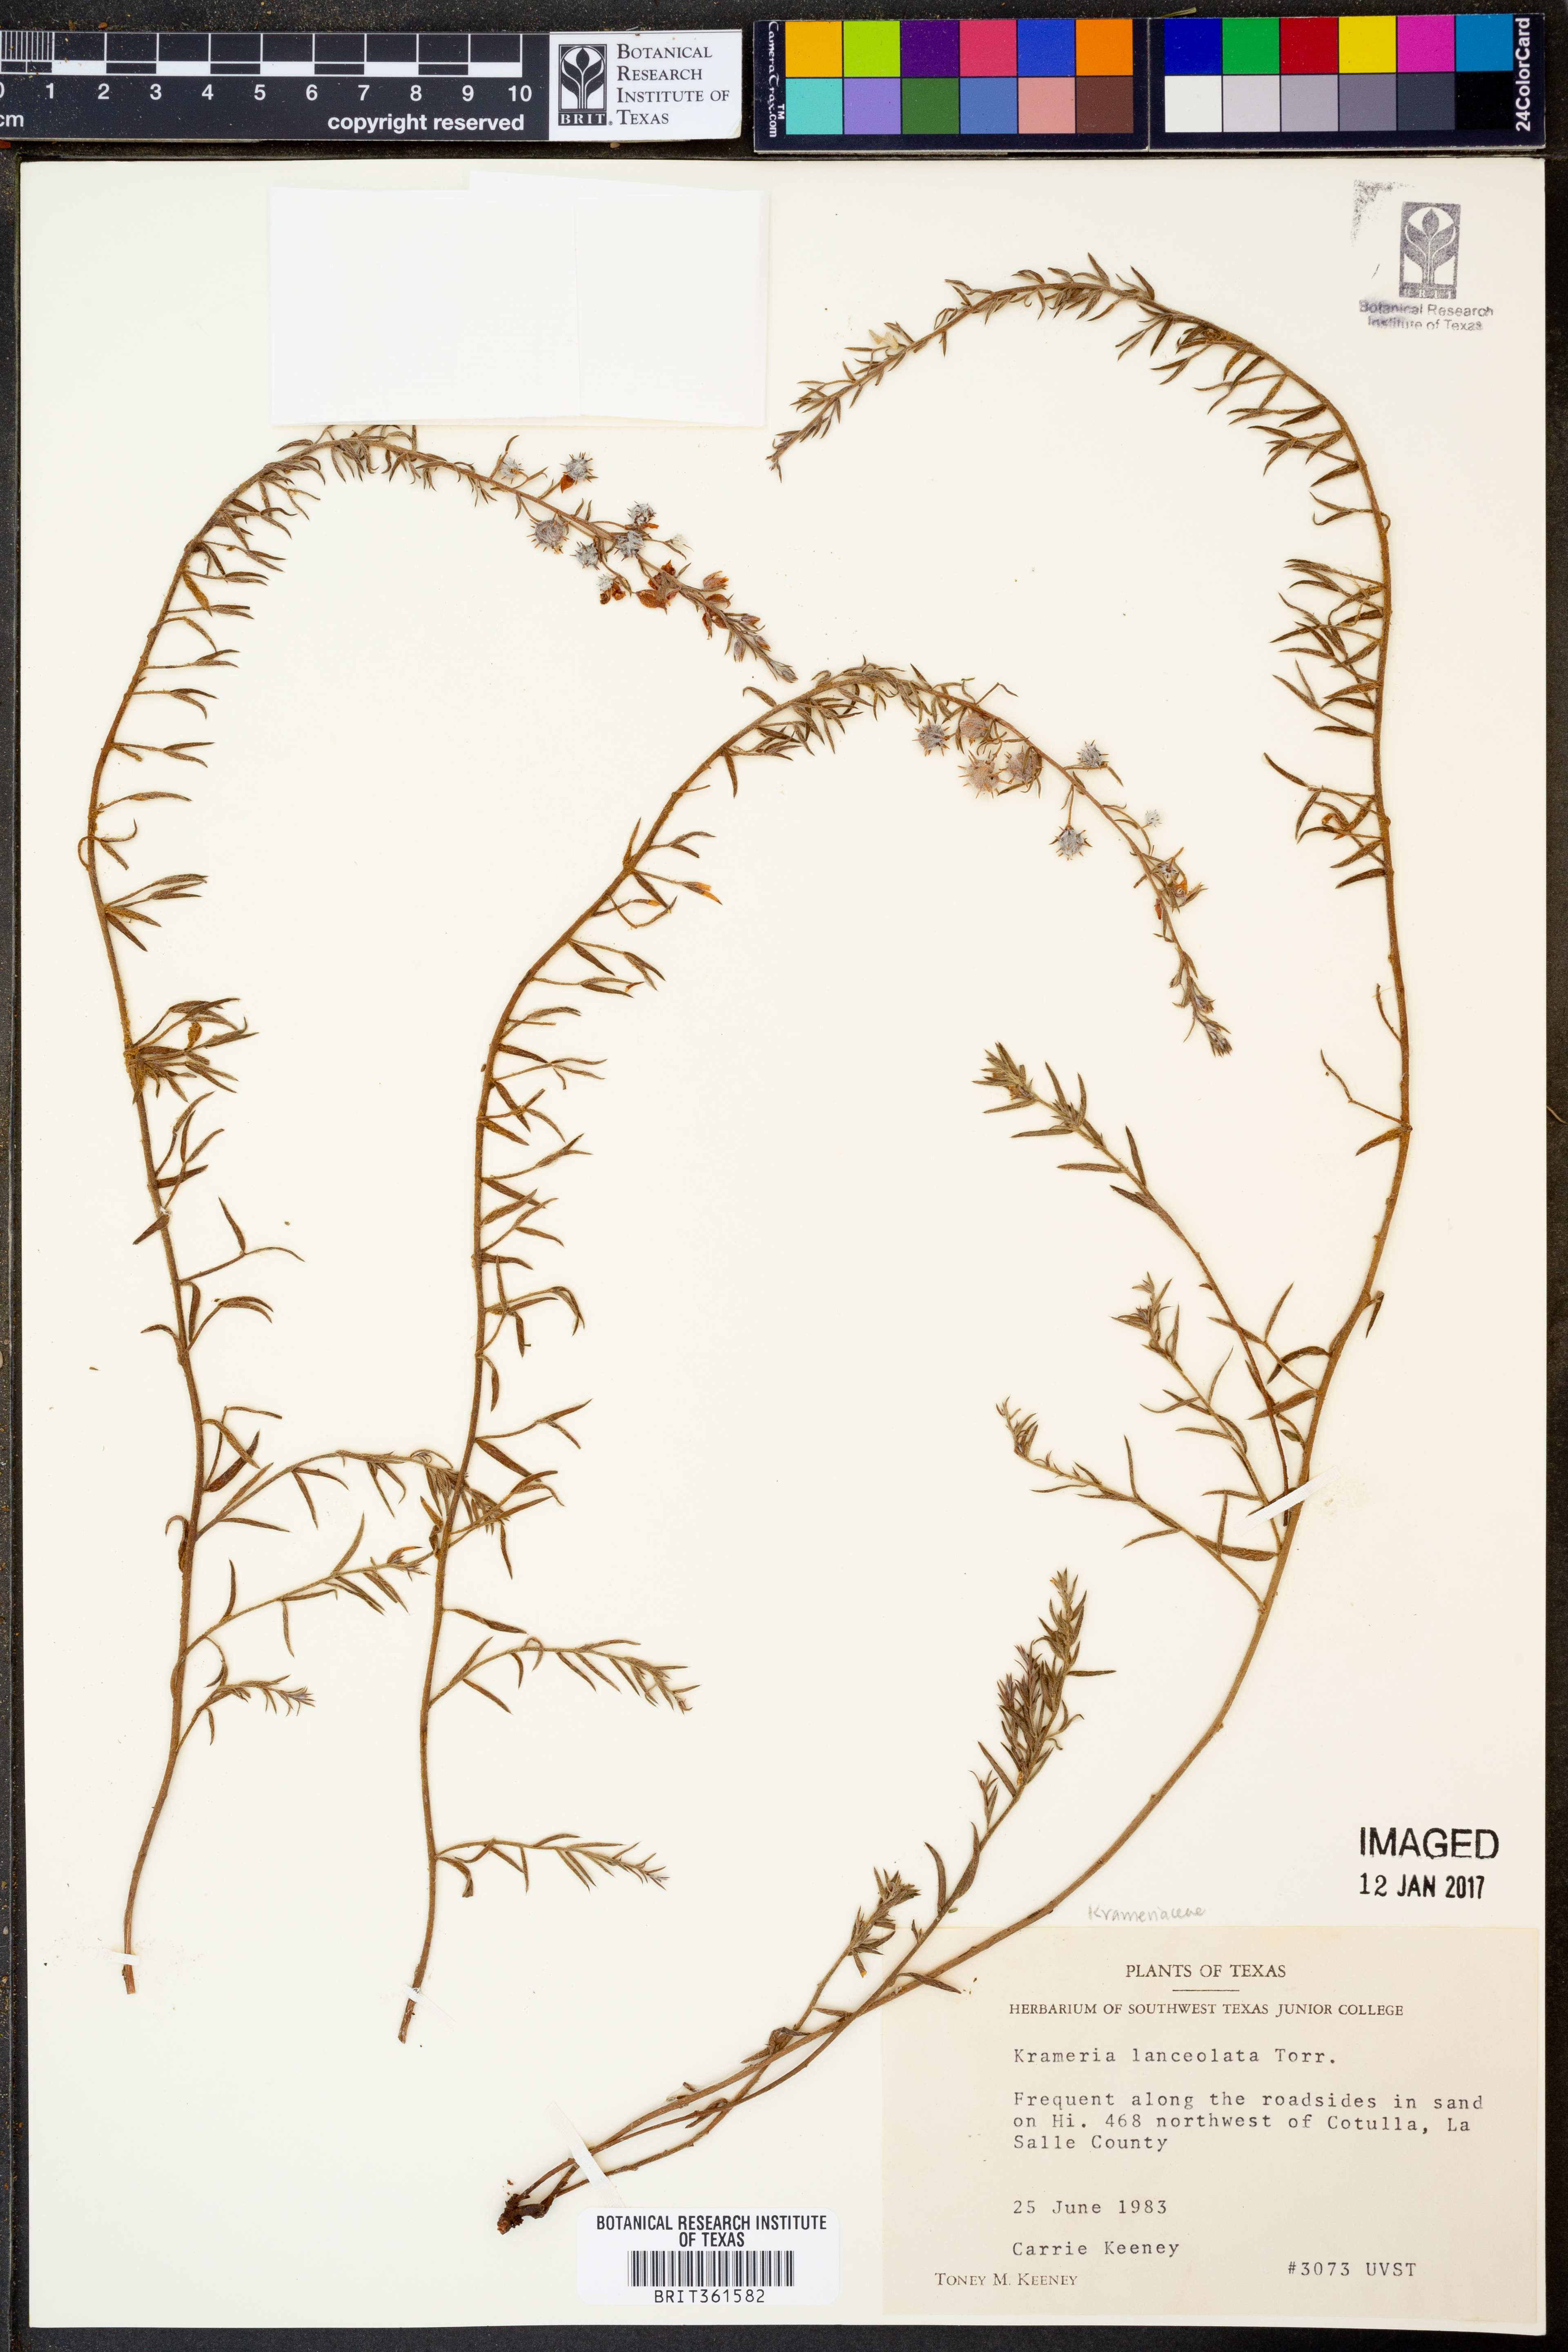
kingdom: Plantae
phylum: Tracheophyta
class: Magnoliopsida
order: Zygophyllales
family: Krameriaceae
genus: Krameria
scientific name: Krameria lanceolata
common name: Ratany
